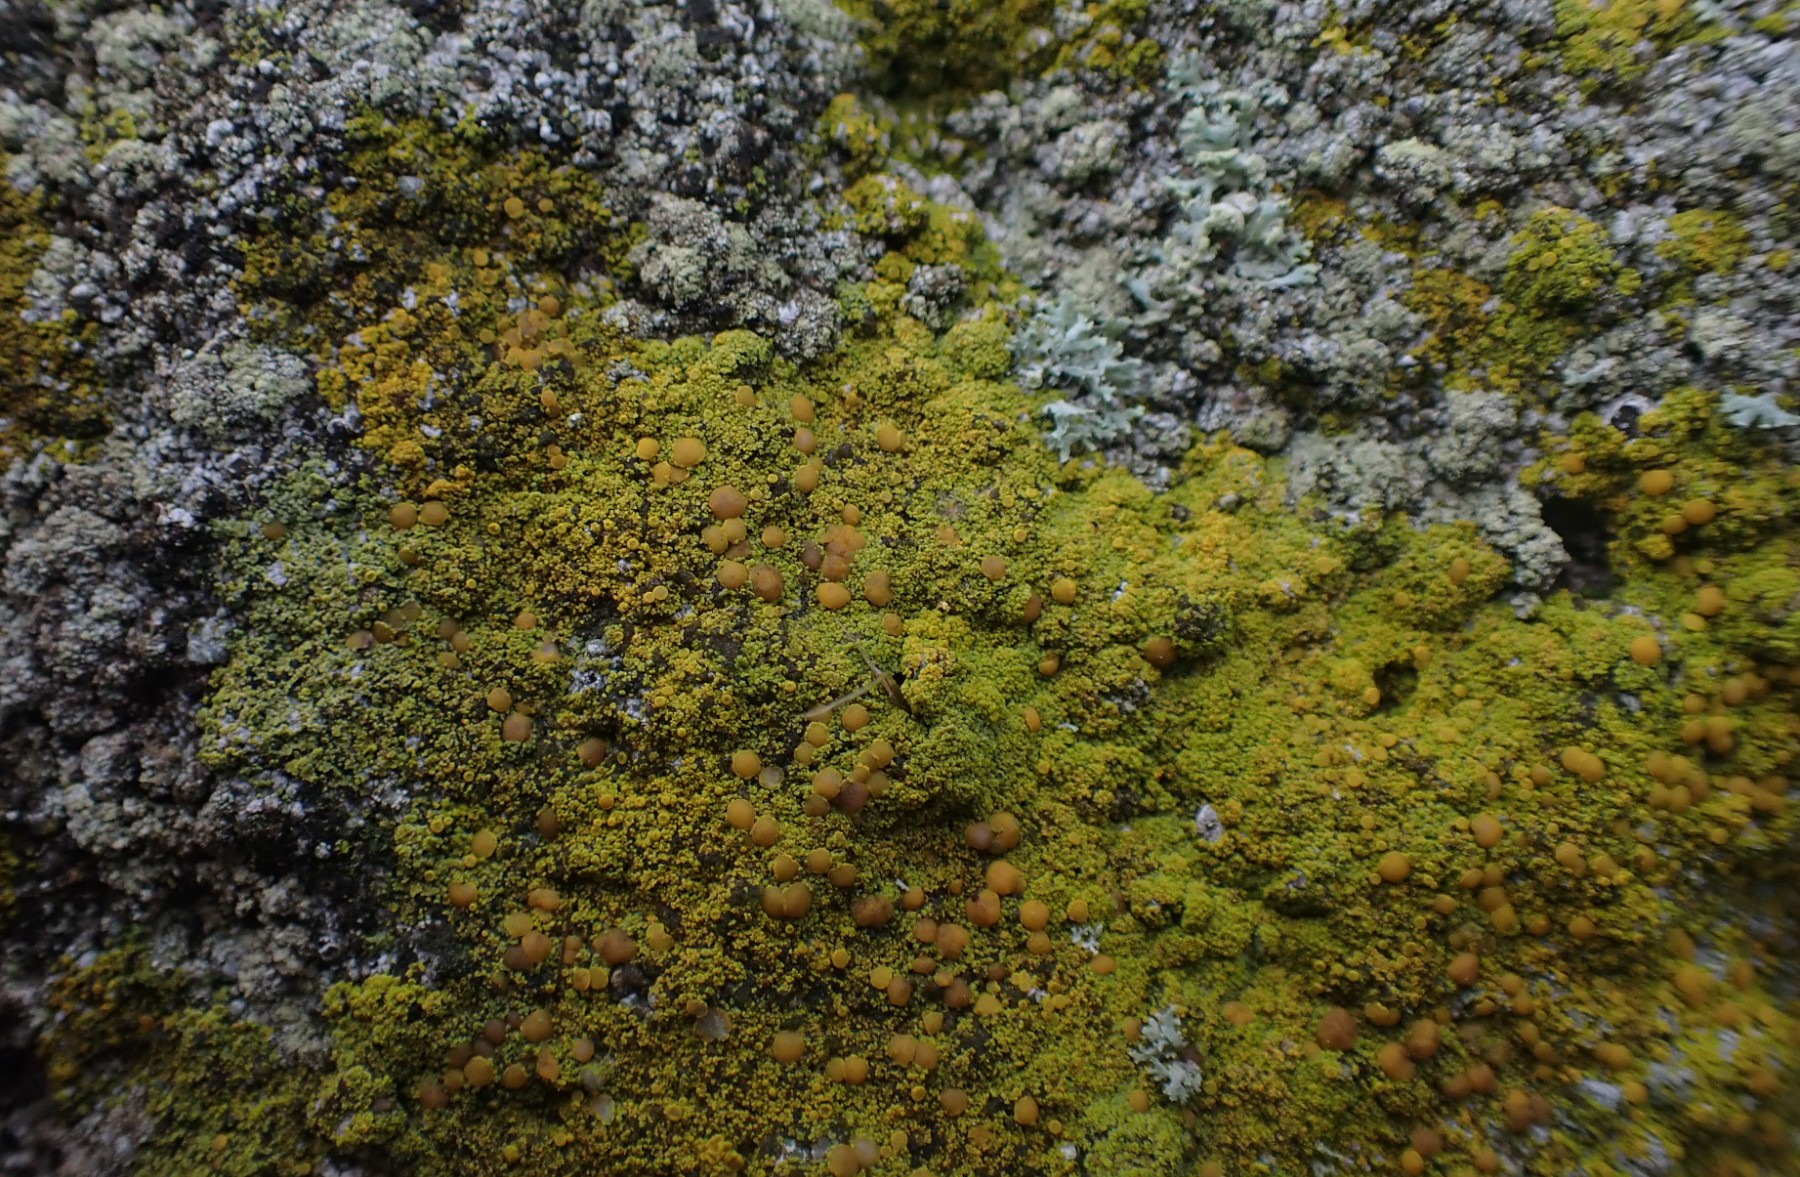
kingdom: Fungi
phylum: Ascomycota
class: Candelariomycetes
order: Candelariales
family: Candelariaceae
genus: Candelariella
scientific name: Candelariella vitellina
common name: almindelig æggeblommelav
